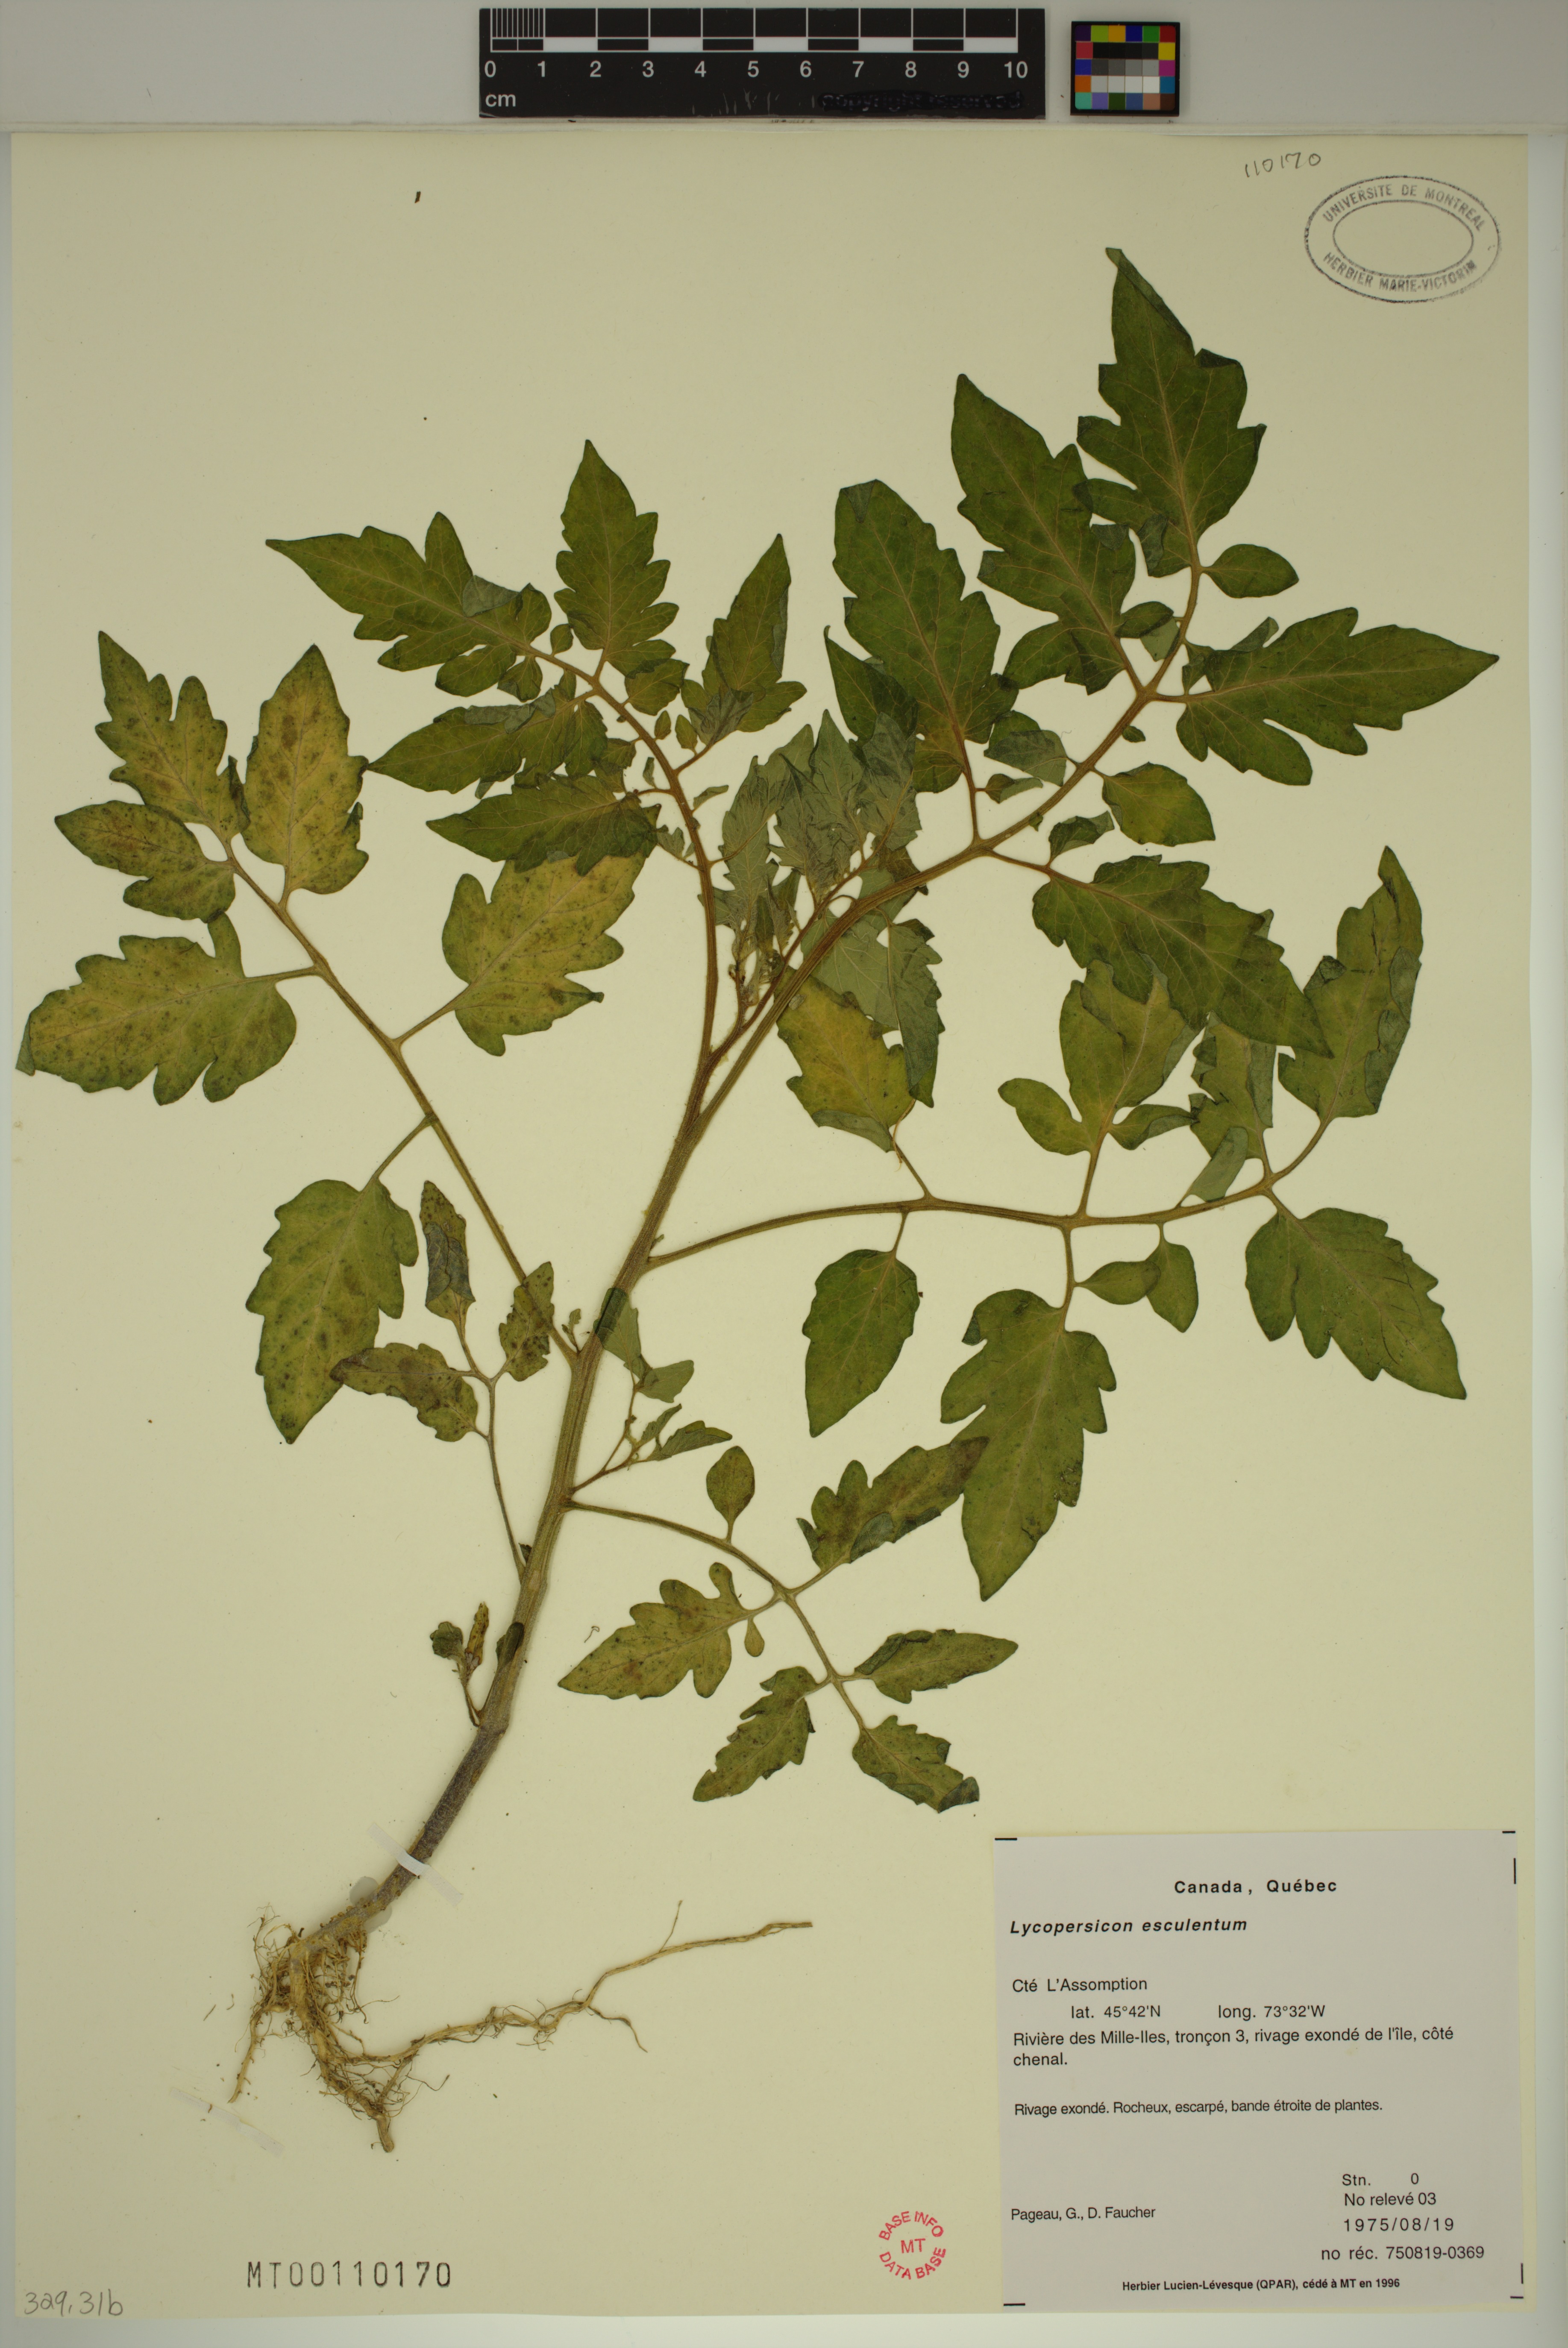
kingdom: Plantae
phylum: Tracheophyta
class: Magnoliopsida
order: Solanales
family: Solanaceae
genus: Solanum
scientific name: Solanum lycopersicum
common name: Garden tomato
